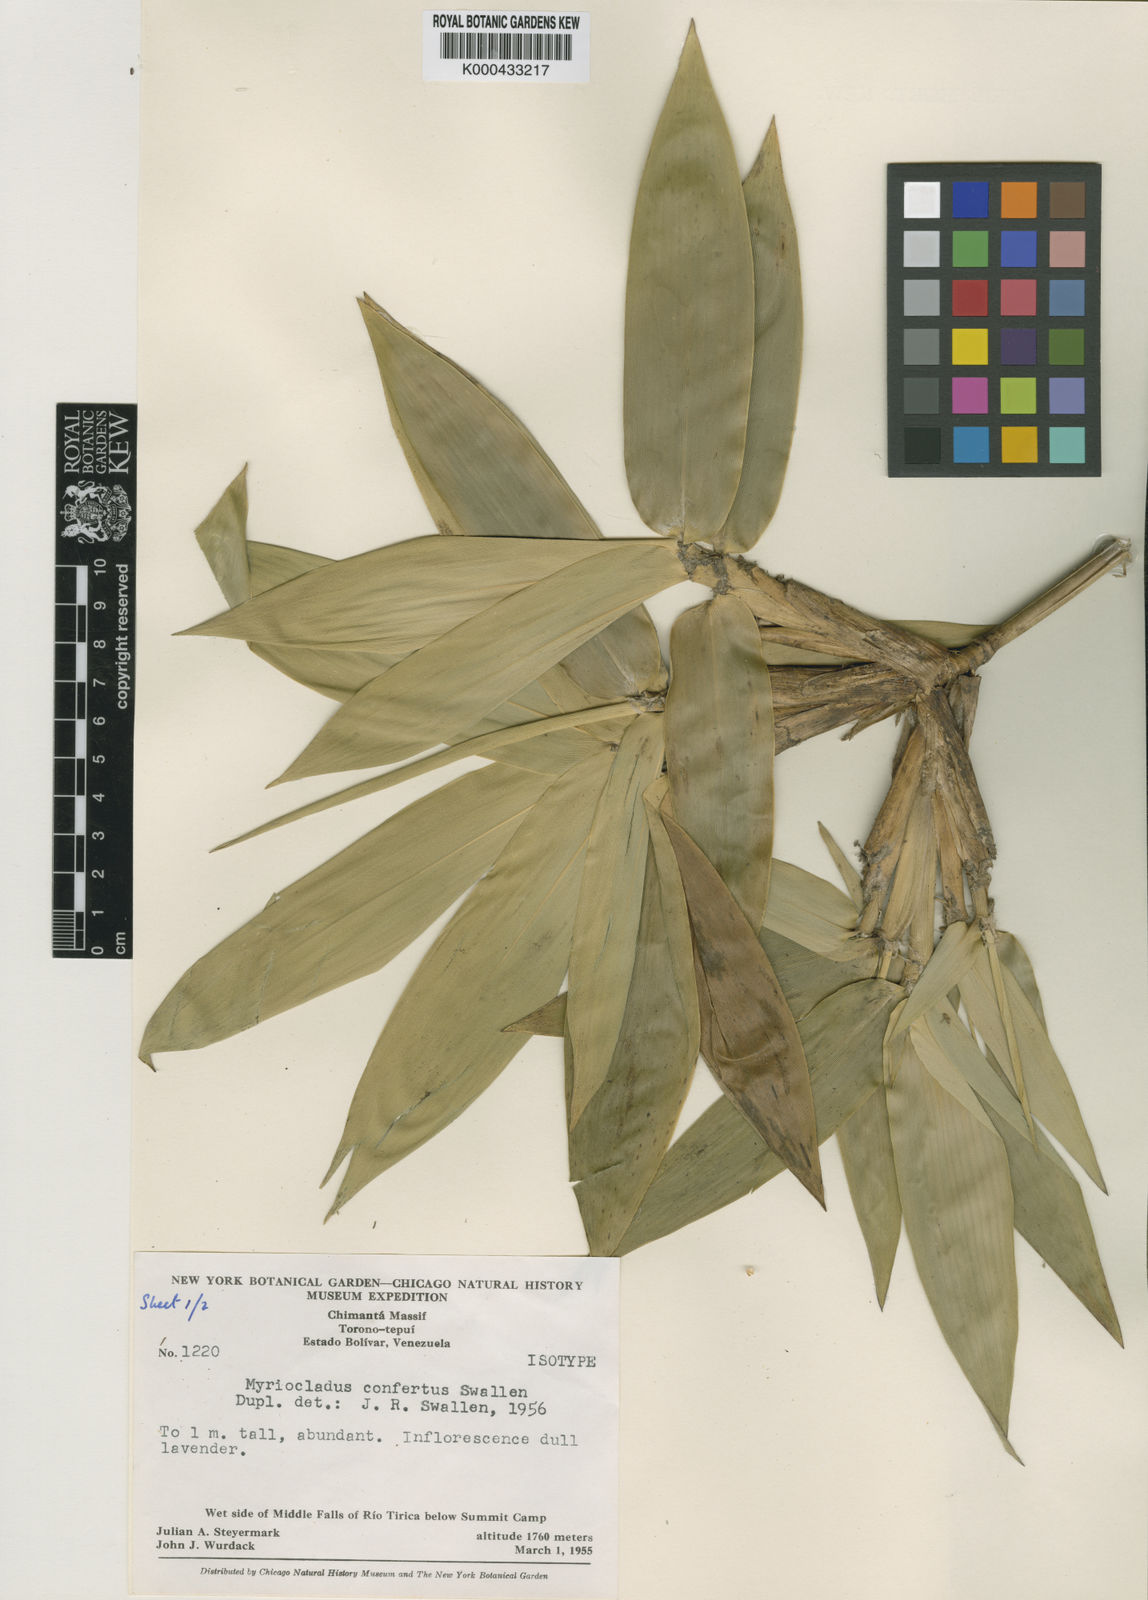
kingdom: Plantae
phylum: Tracheophyta
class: Liliopsida
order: Poales
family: Poaceae
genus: Myriocladus
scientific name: Myriocladus distantiflorus
